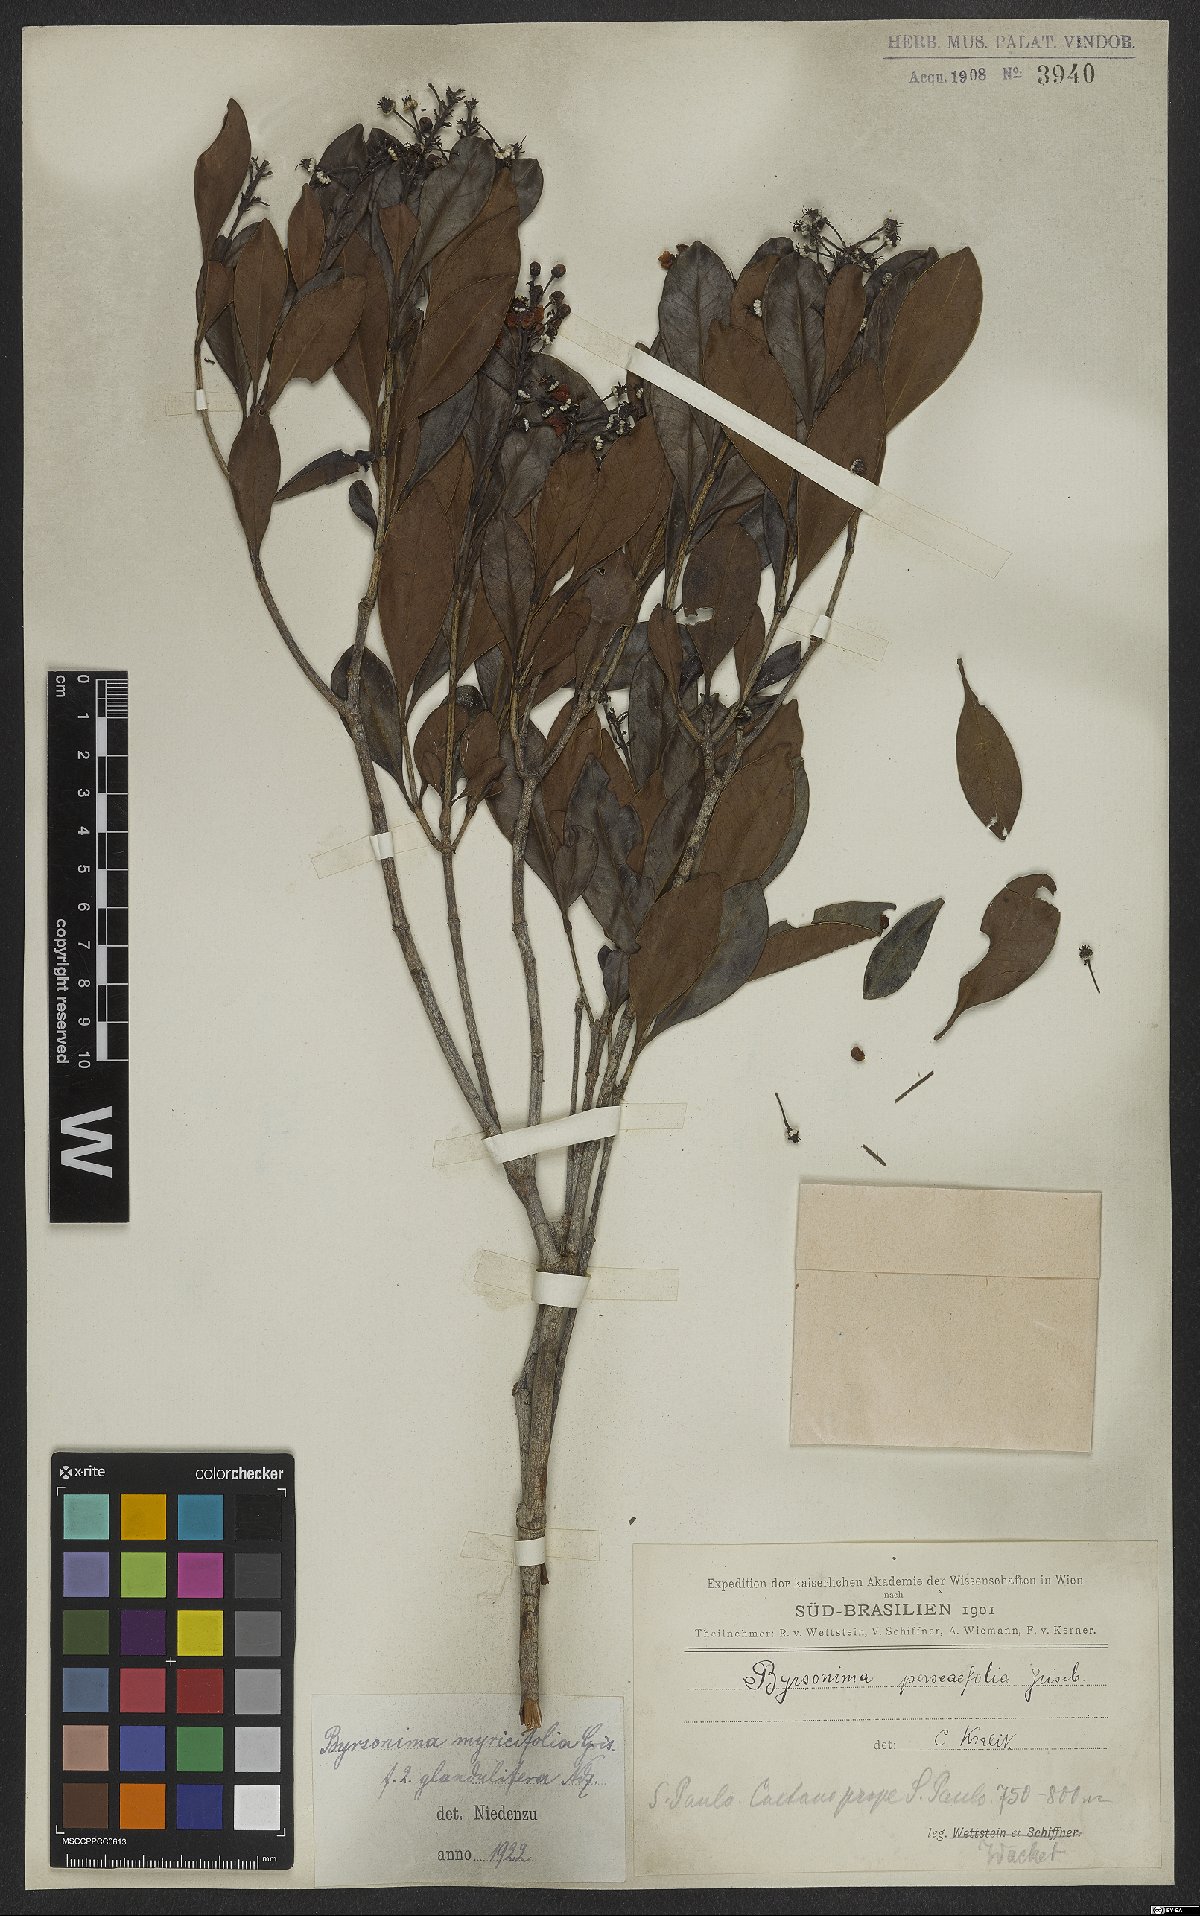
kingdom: Plantae
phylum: Tracheophyta
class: Magnoliopsida
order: Malpighiales
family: Malpighiaceae
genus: Byrsonima
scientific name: Byrsonima myricifolia
